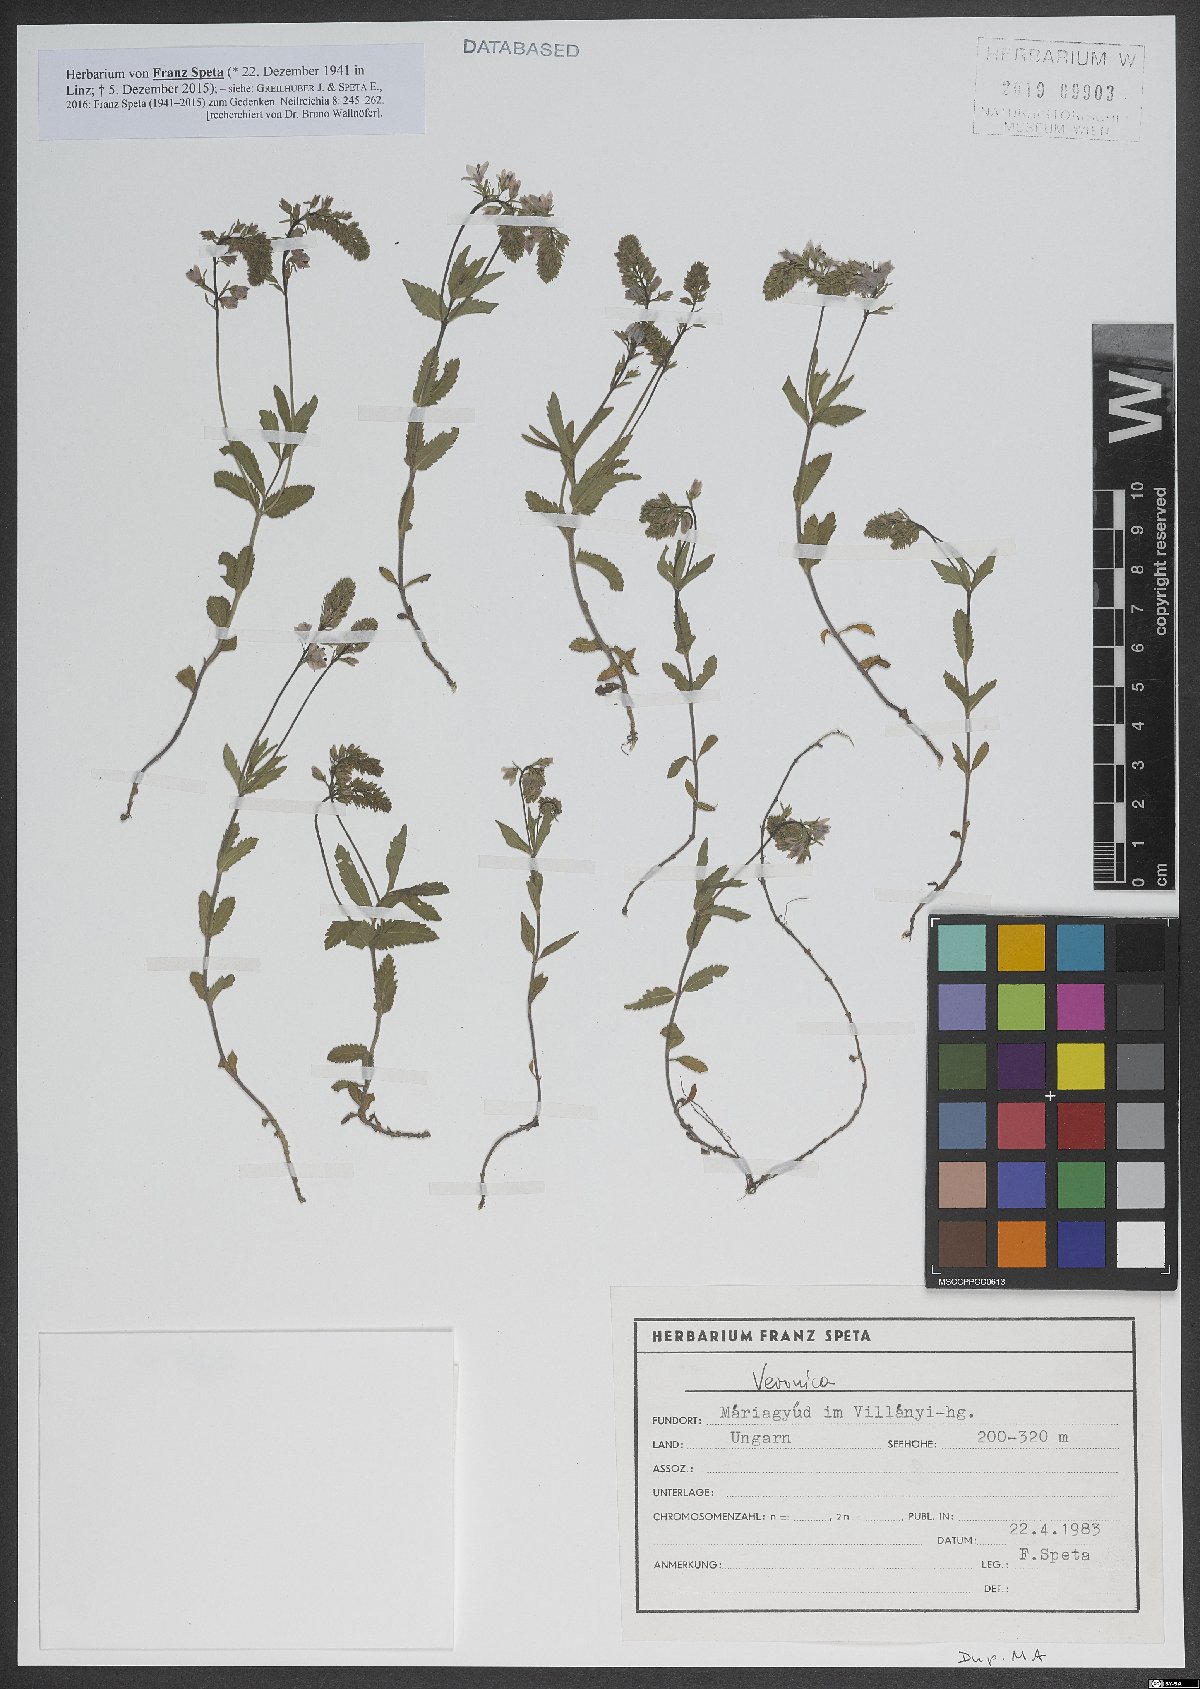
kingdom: Plantae
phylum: Tracheophyta
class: Magnoliopsida
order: Lamiales
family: Plantaginaceae
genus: Veronica
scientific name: Veronica
